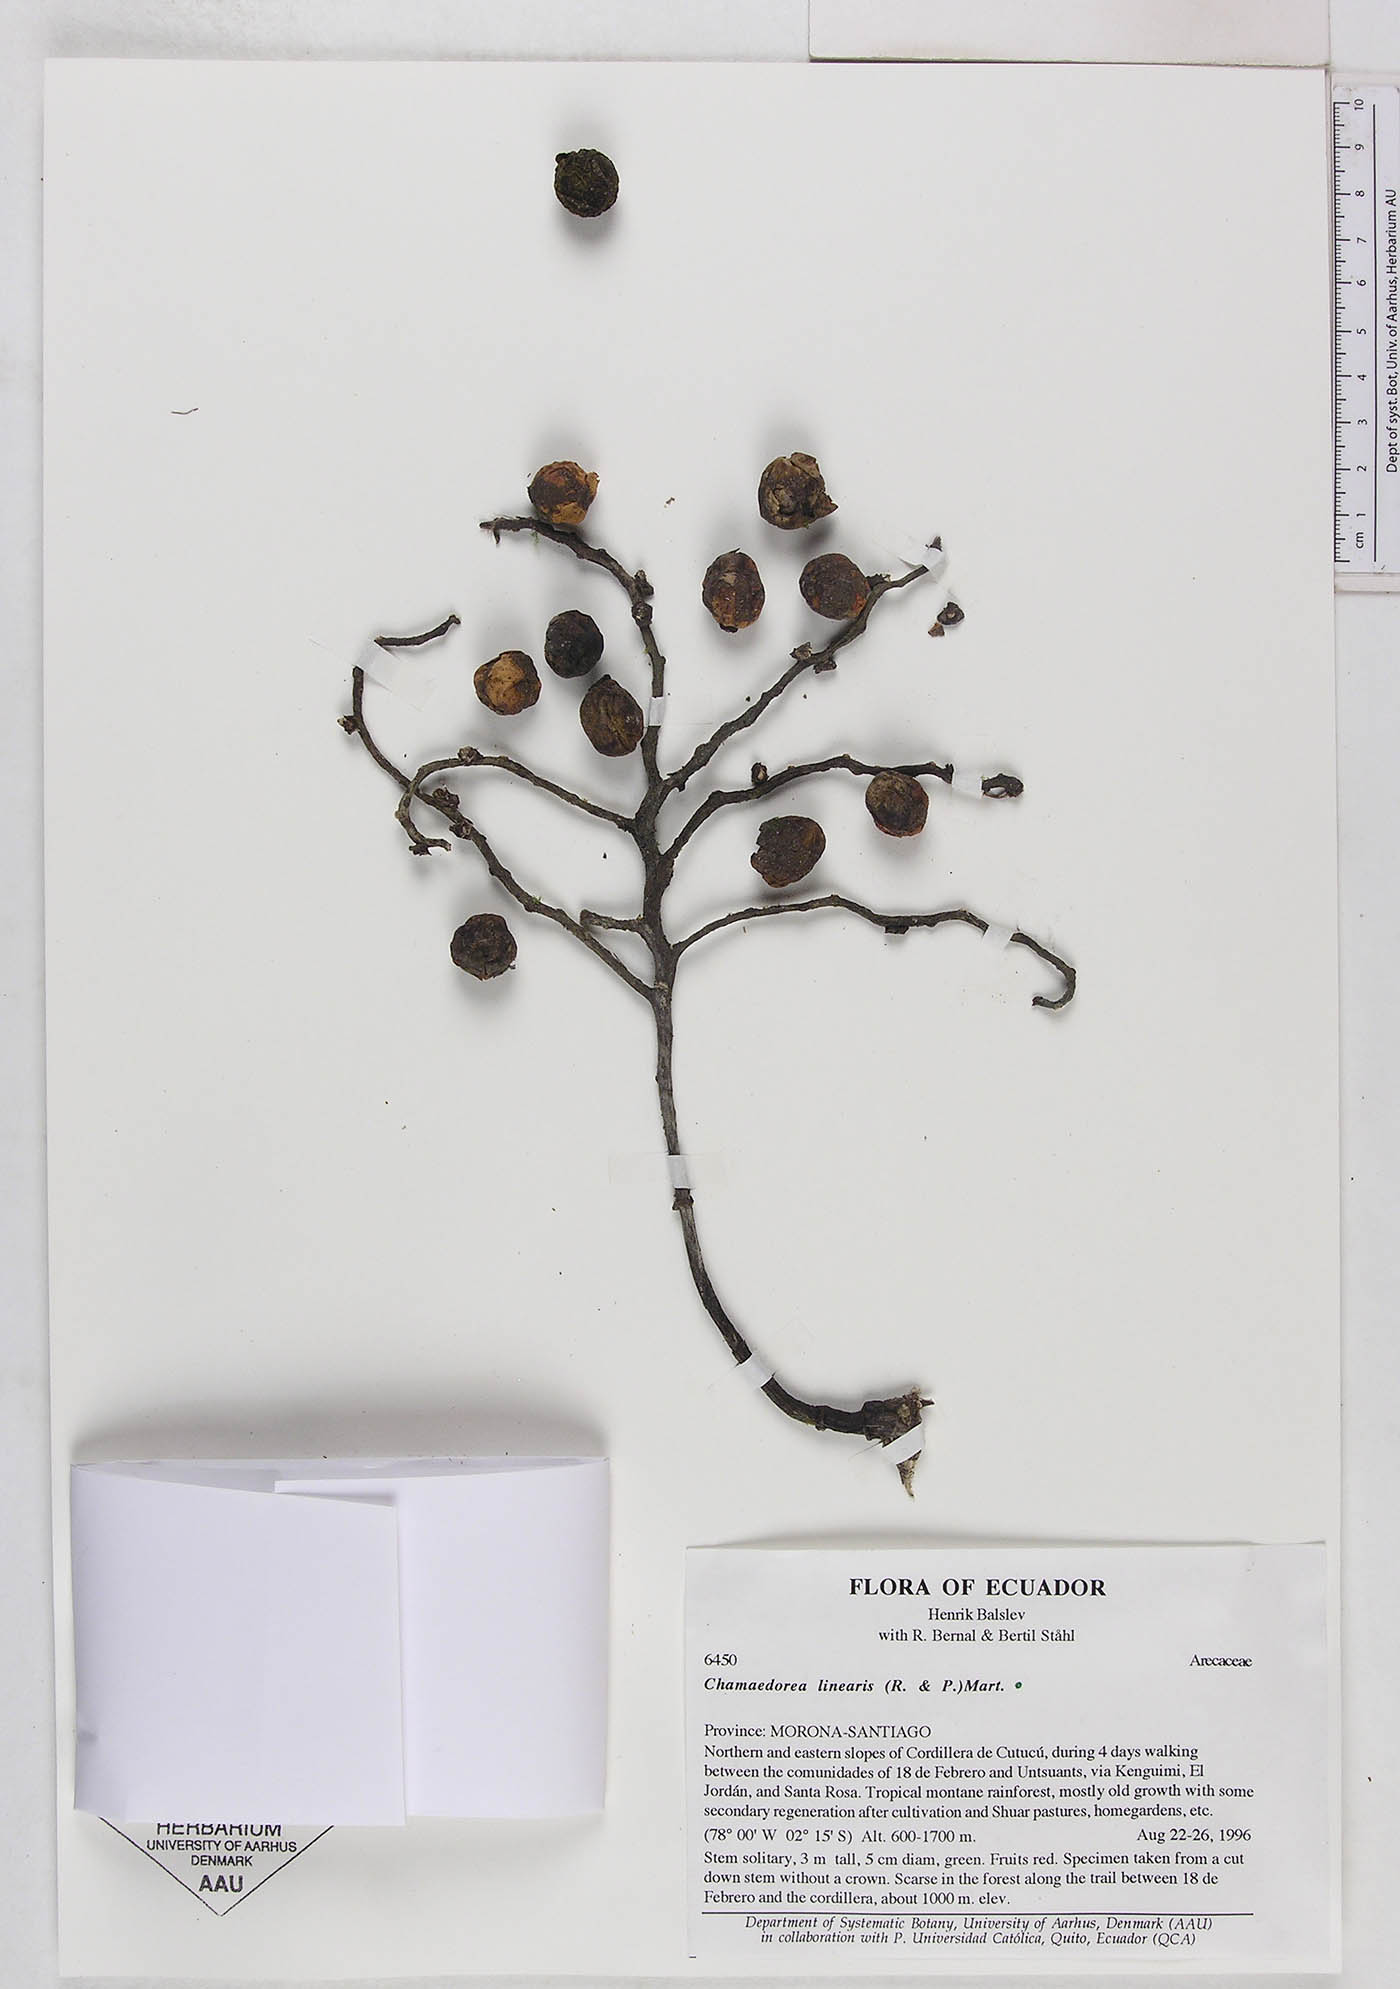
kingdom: Plantae
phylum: Tracheophyta
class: Liliopsida
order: Arecales
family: Arecaceae
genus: Chamaedorea
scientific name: Chamaedorea linearis
